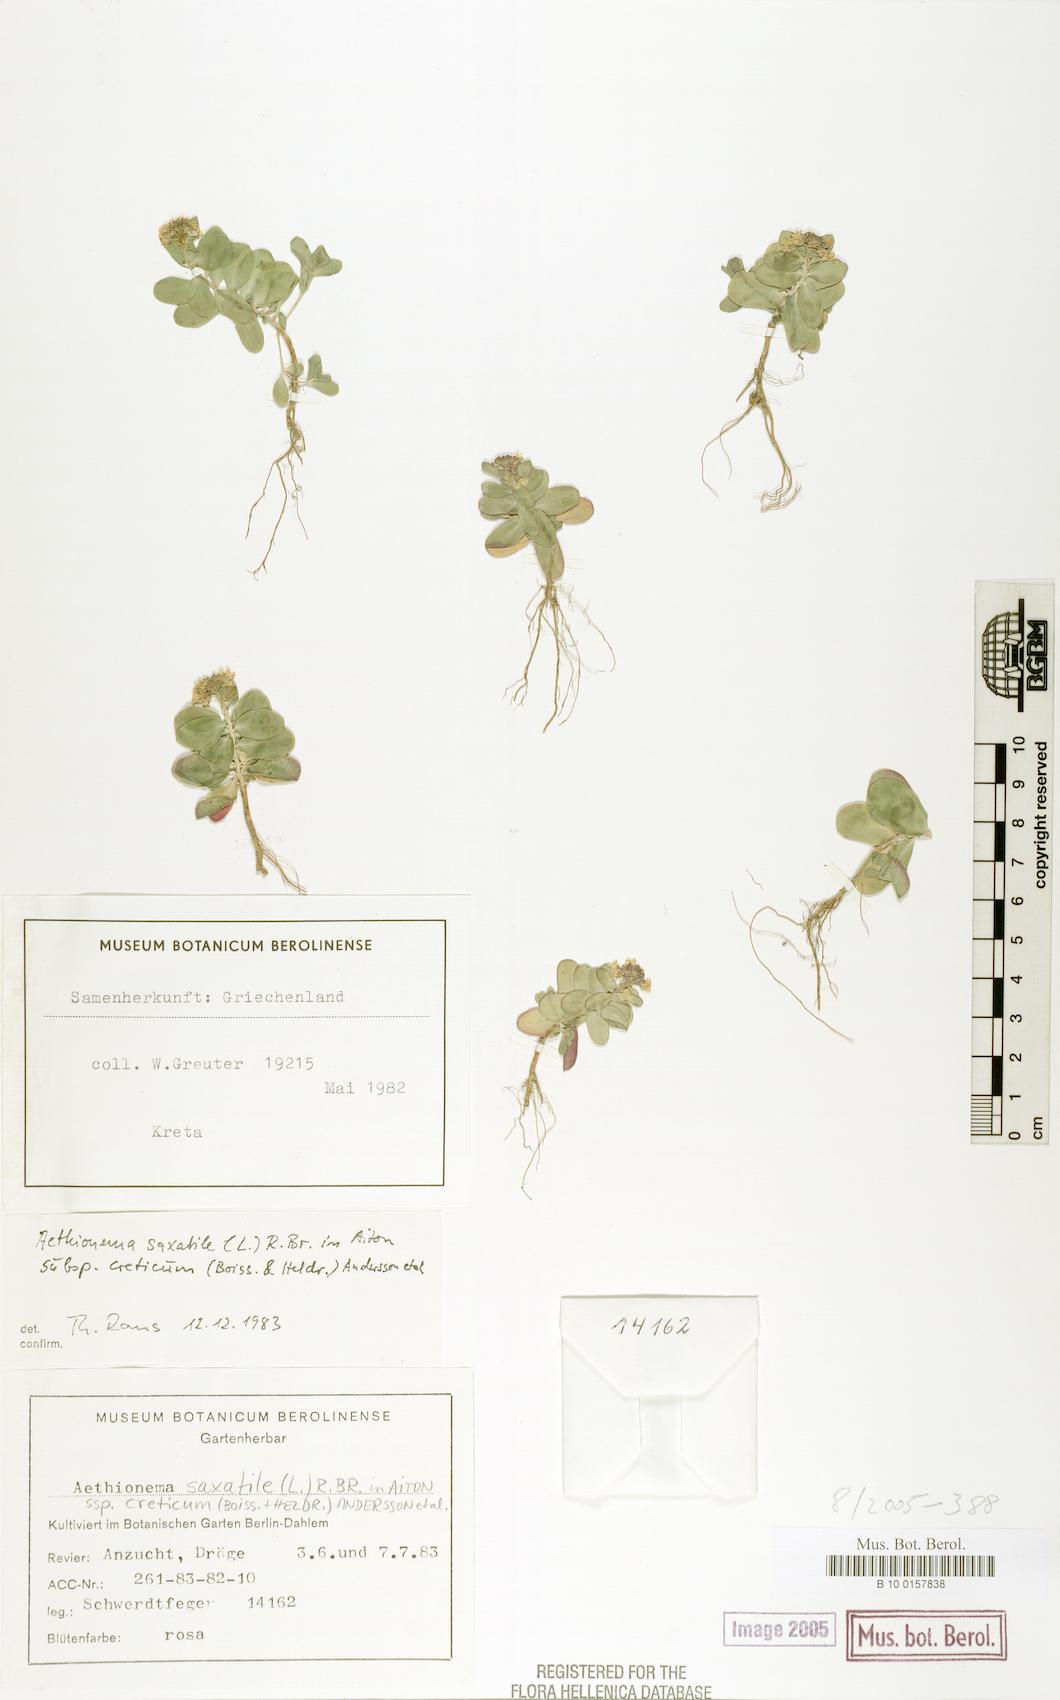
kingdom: Plantae
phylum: Tracheophyta
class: Magnoliopsida
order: Brassicales
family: Brassicaceae
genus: Aethionema
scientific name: Aethionema saxatile
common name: Burnt candytuft
